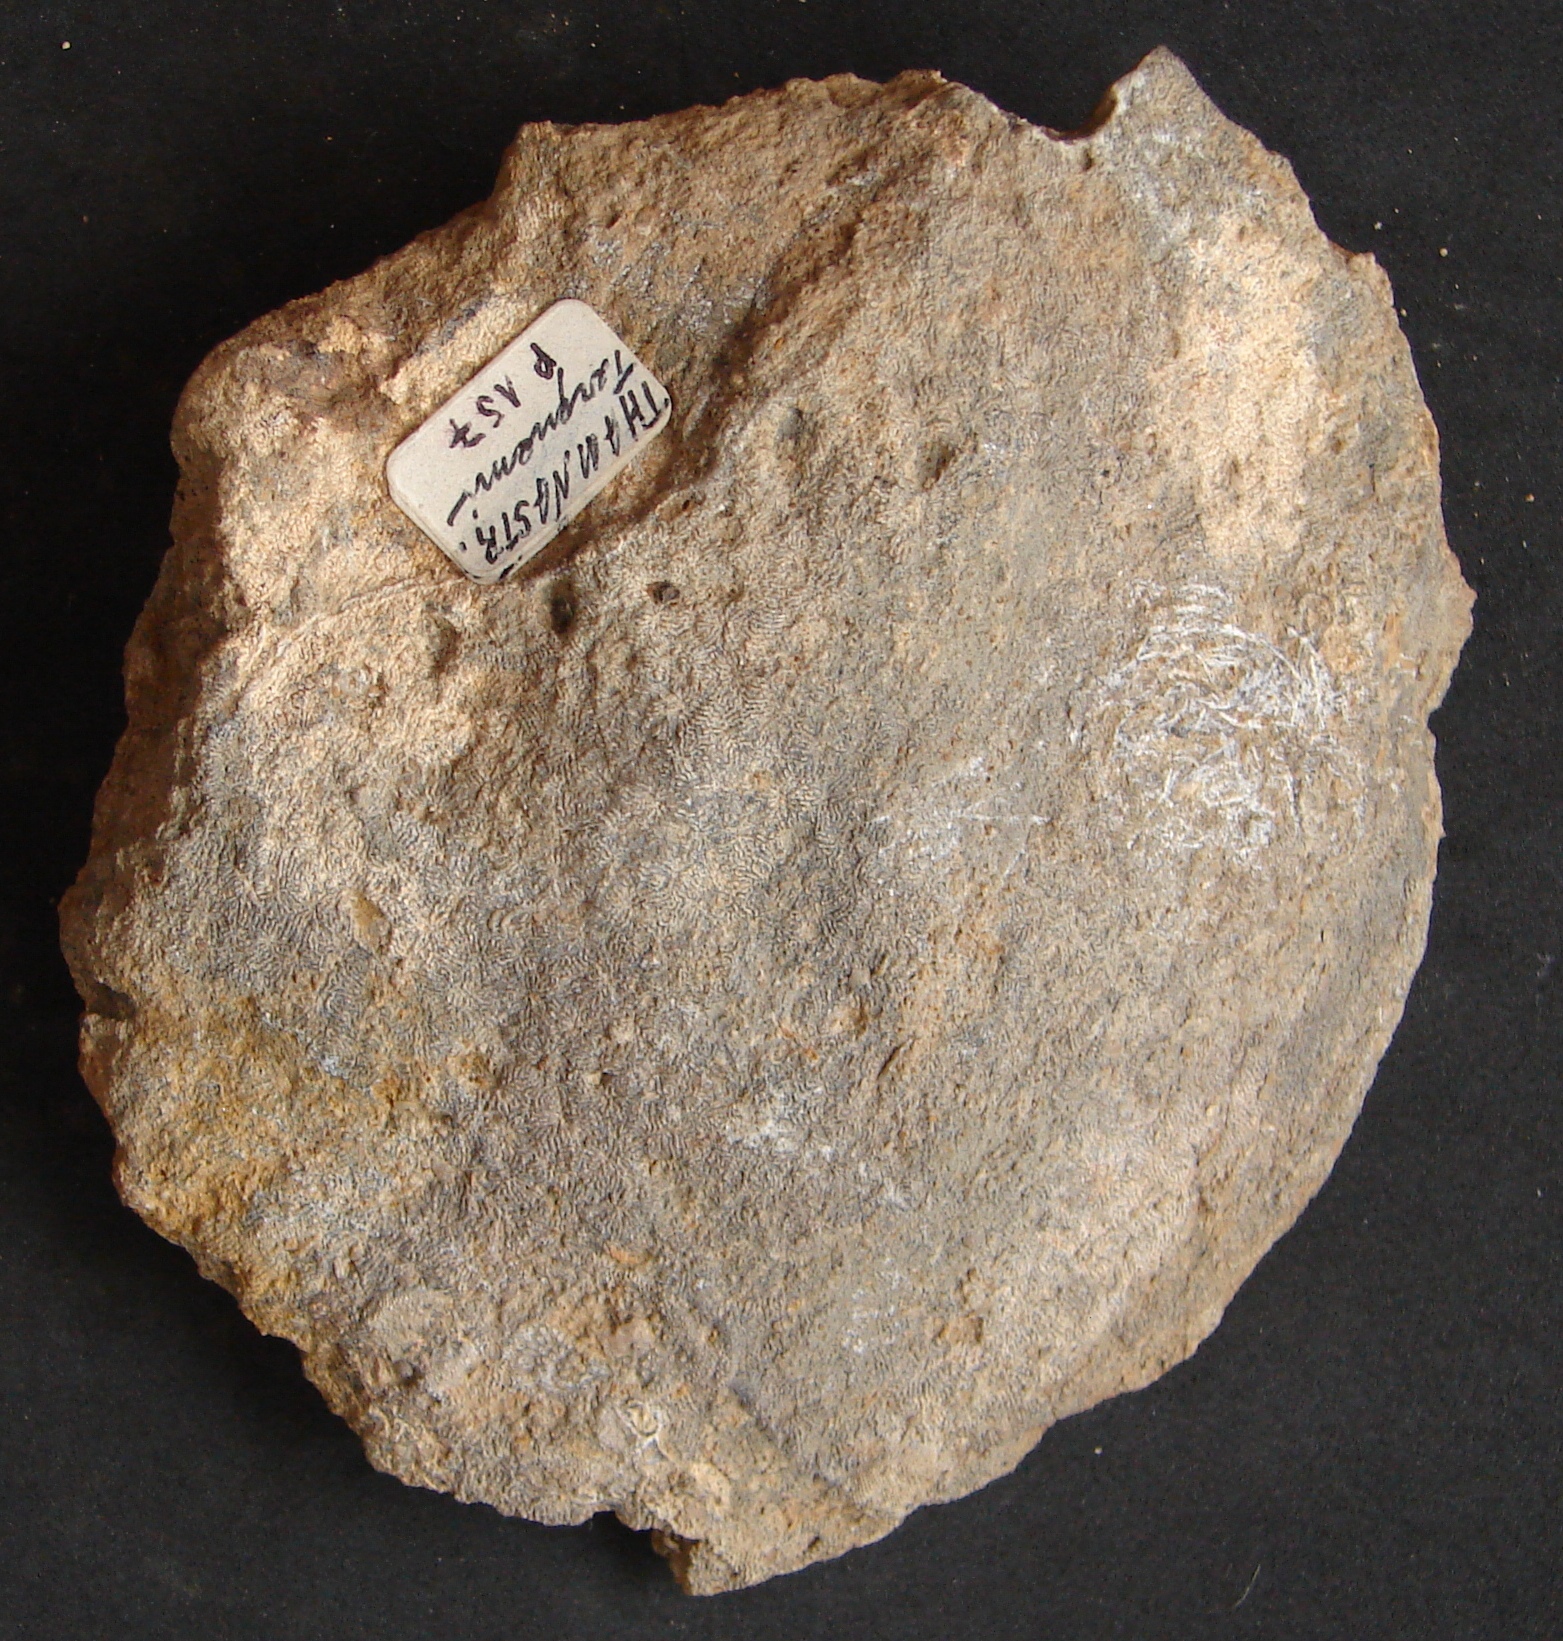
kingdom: Animalia
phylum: Cnidaria
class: Anthozoa
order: Scleractinia
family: Latomeandridae
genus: Periseris
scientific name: Periseris elegantula
